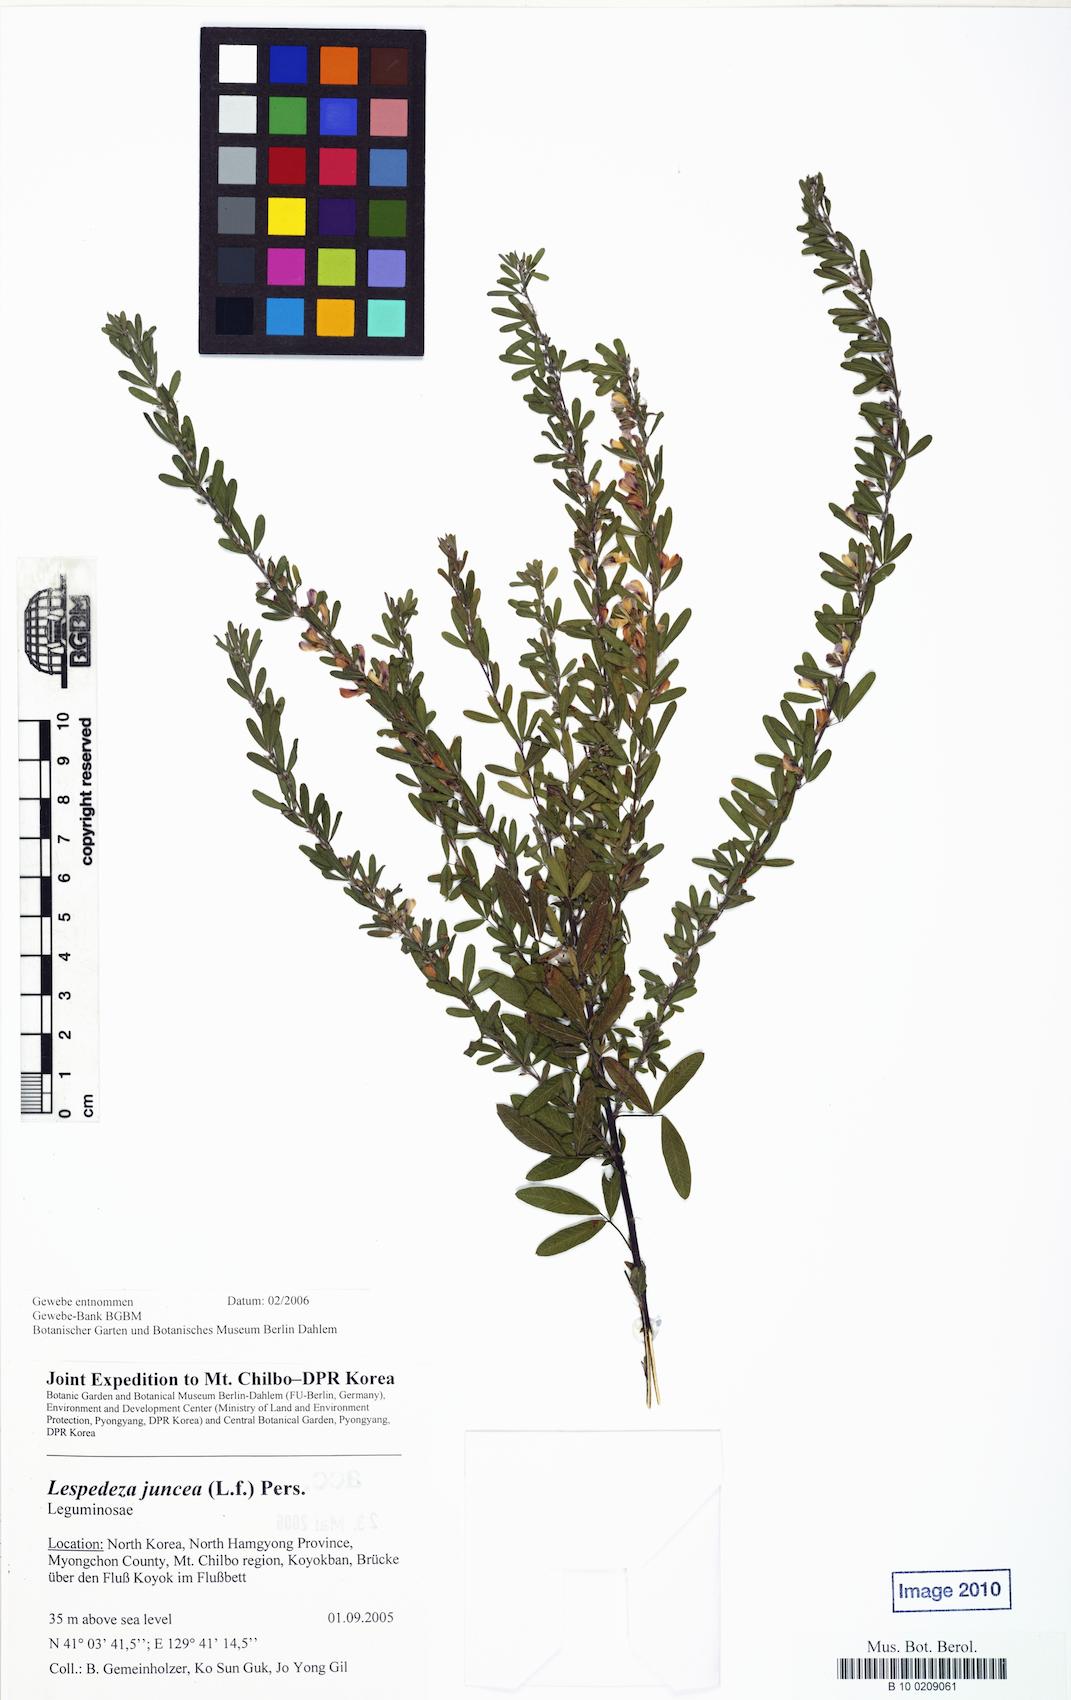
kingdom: Plantae
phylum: Tracheophyta
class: Magnoliopsida
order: Fabales
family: Fabaceae
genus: Lespedeza
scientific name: Lespedeza juncea
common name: Siberian lespedeza
